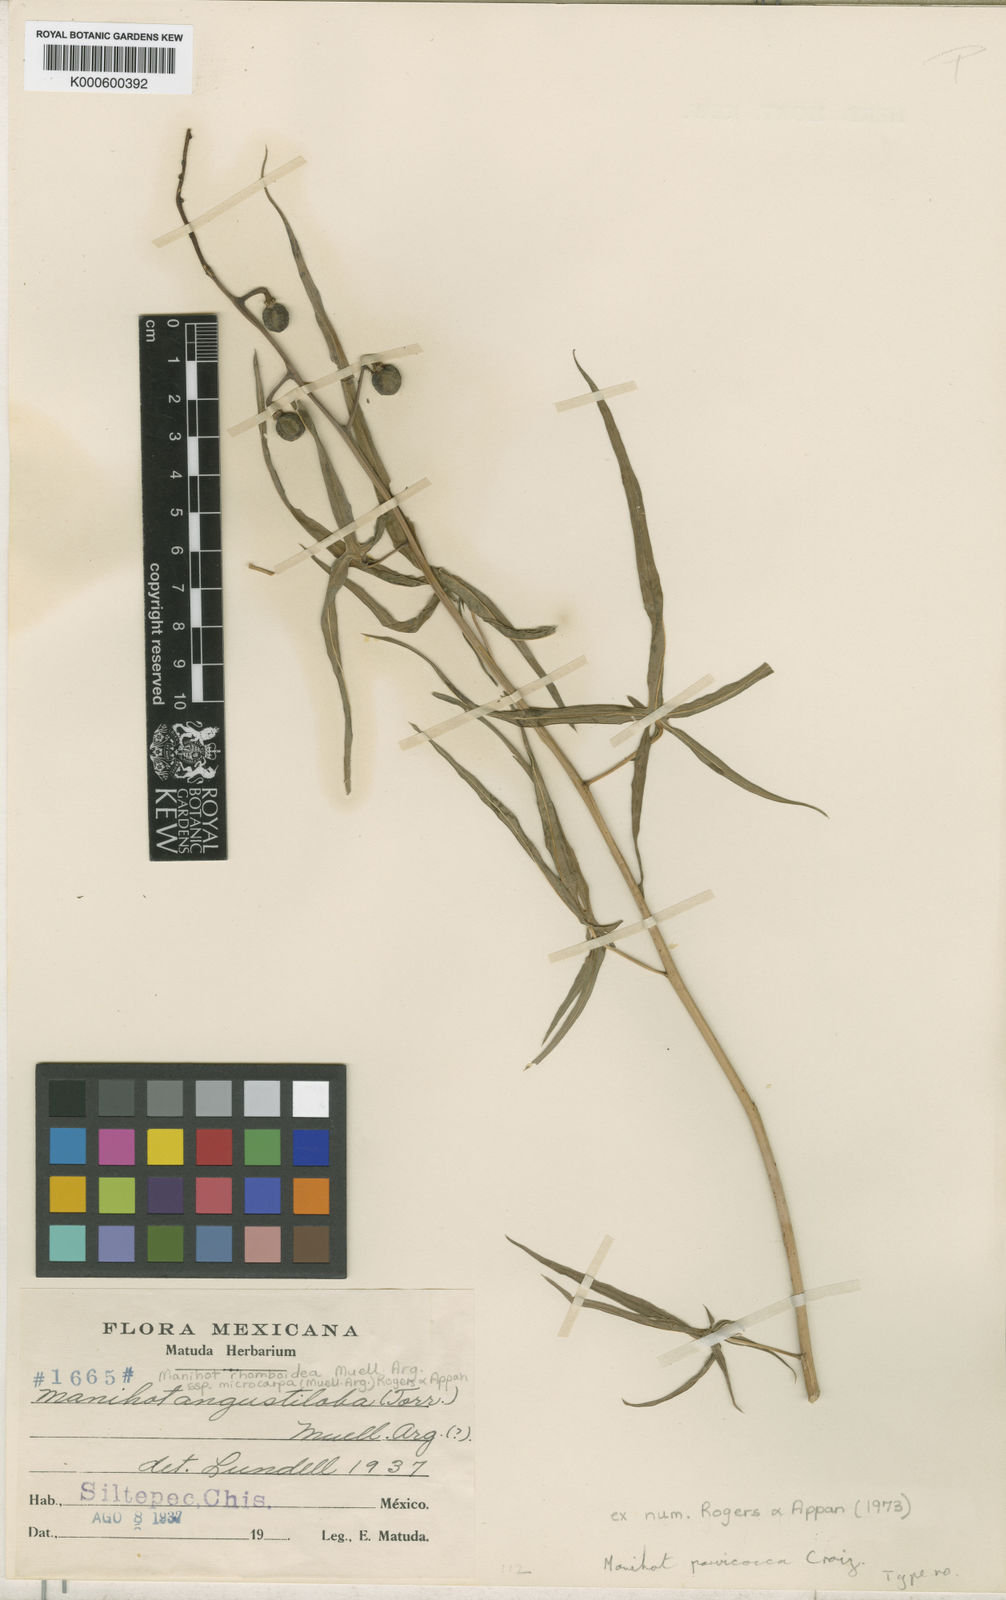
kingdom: Plantae
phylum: Tracheophyta
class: Magnoliopsida
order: Malpighiales
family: Euphorbiaceae
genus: Manihot
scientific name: Manihot
